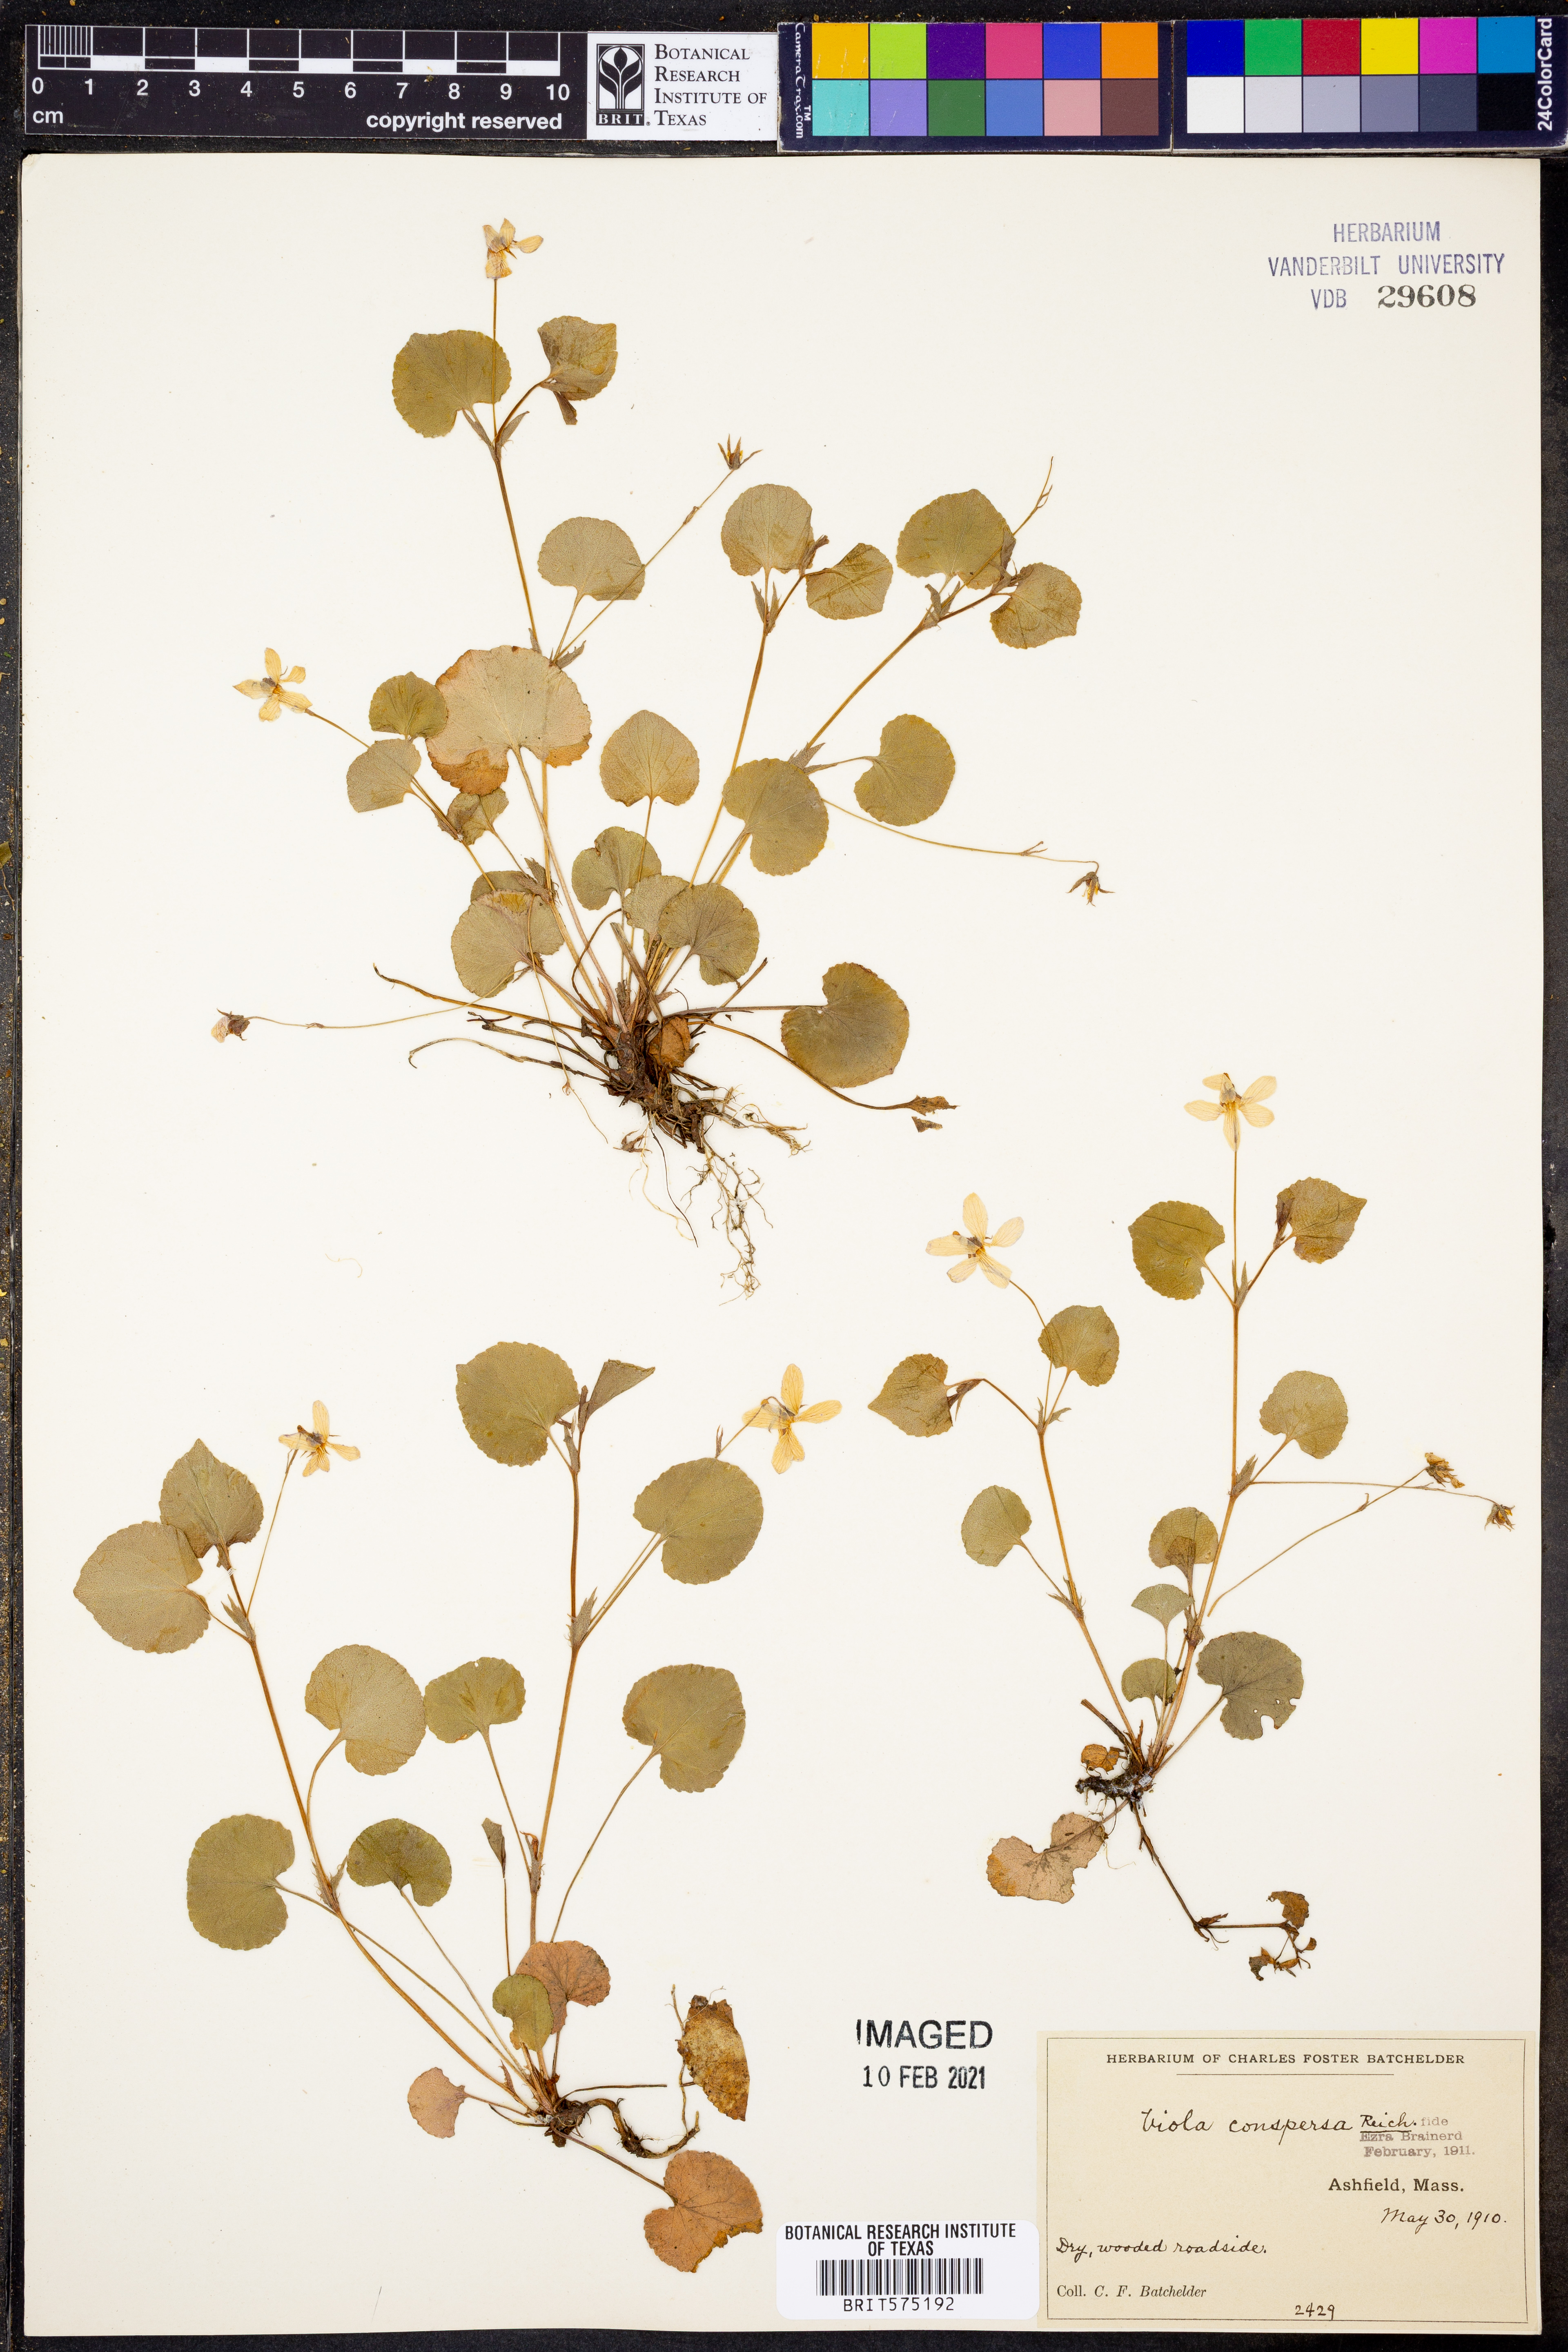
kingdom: Plantae
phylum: Tracheophyta
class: Magnoliopsida
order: Malpighiales
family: Violaceae
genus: Viola
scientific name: Viola labradorica
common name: Labrador violet
